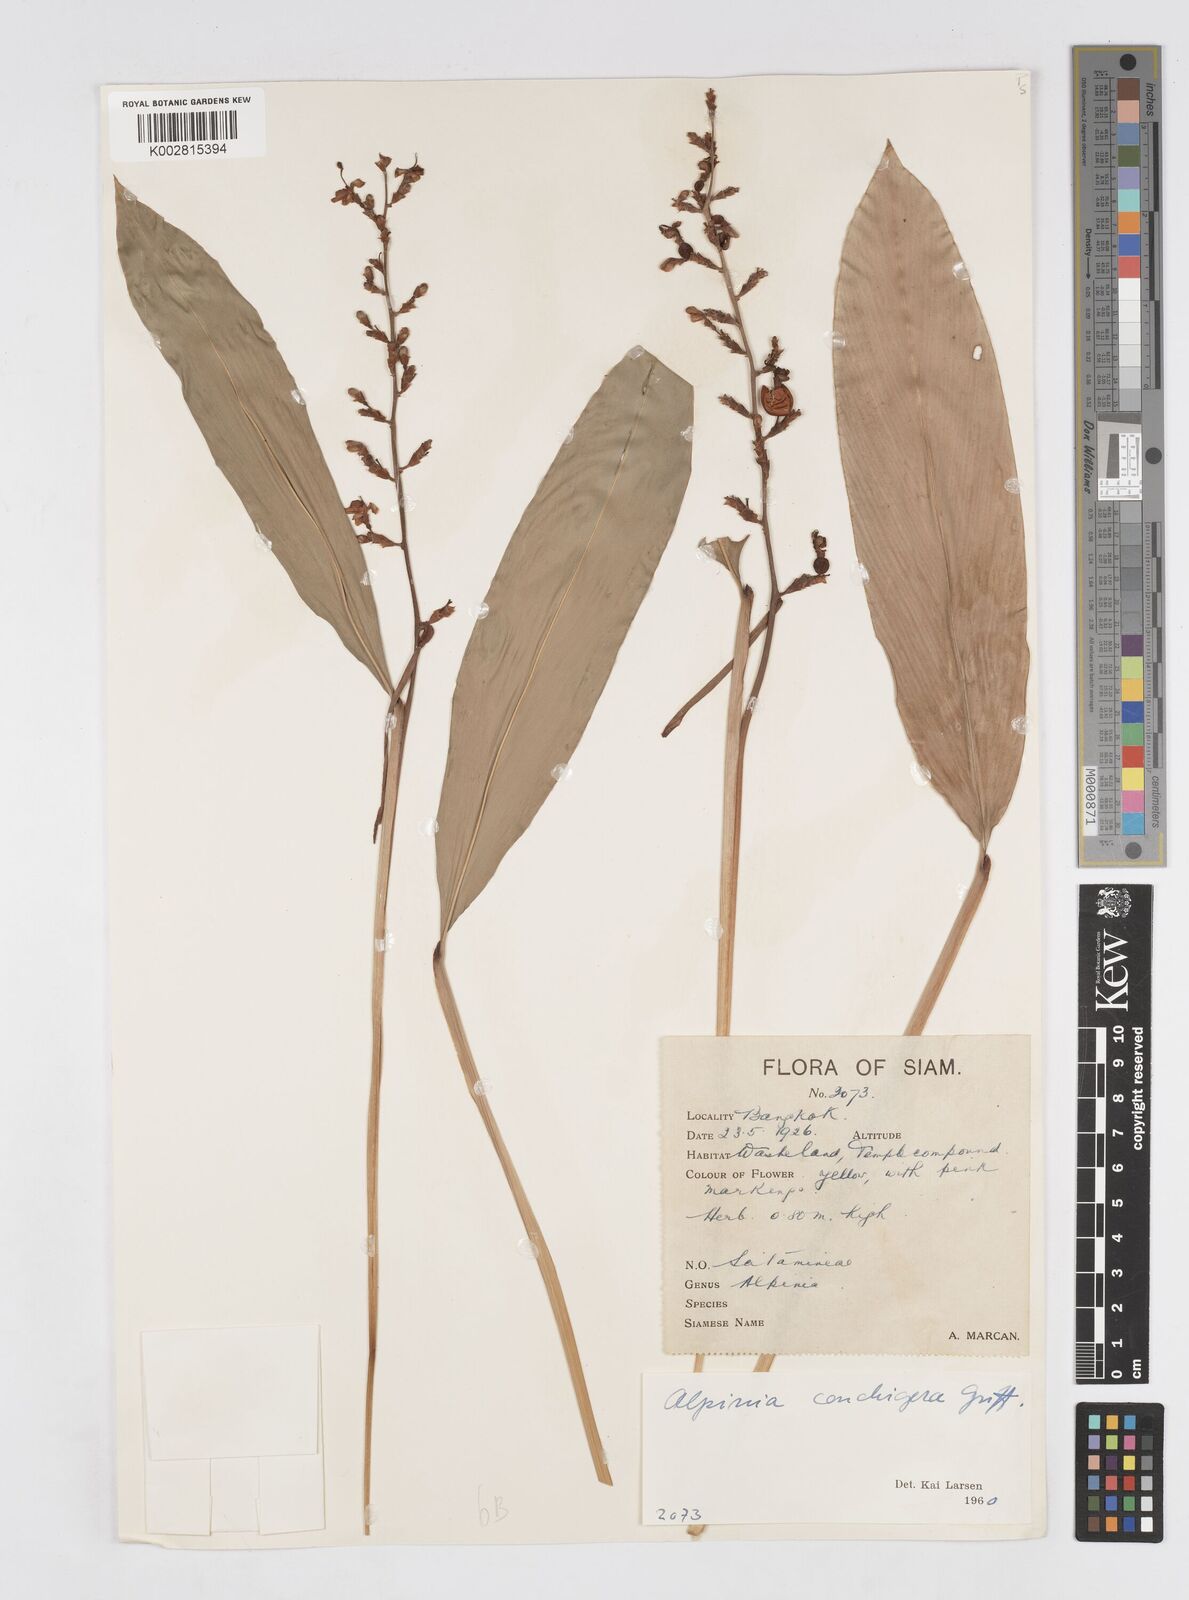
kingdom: Plantae
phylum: Tracheophyta
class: Liliopsida
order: Zingiberales
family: Zingiberaceae
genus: Alpinia
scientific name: Alpinia conchigera
